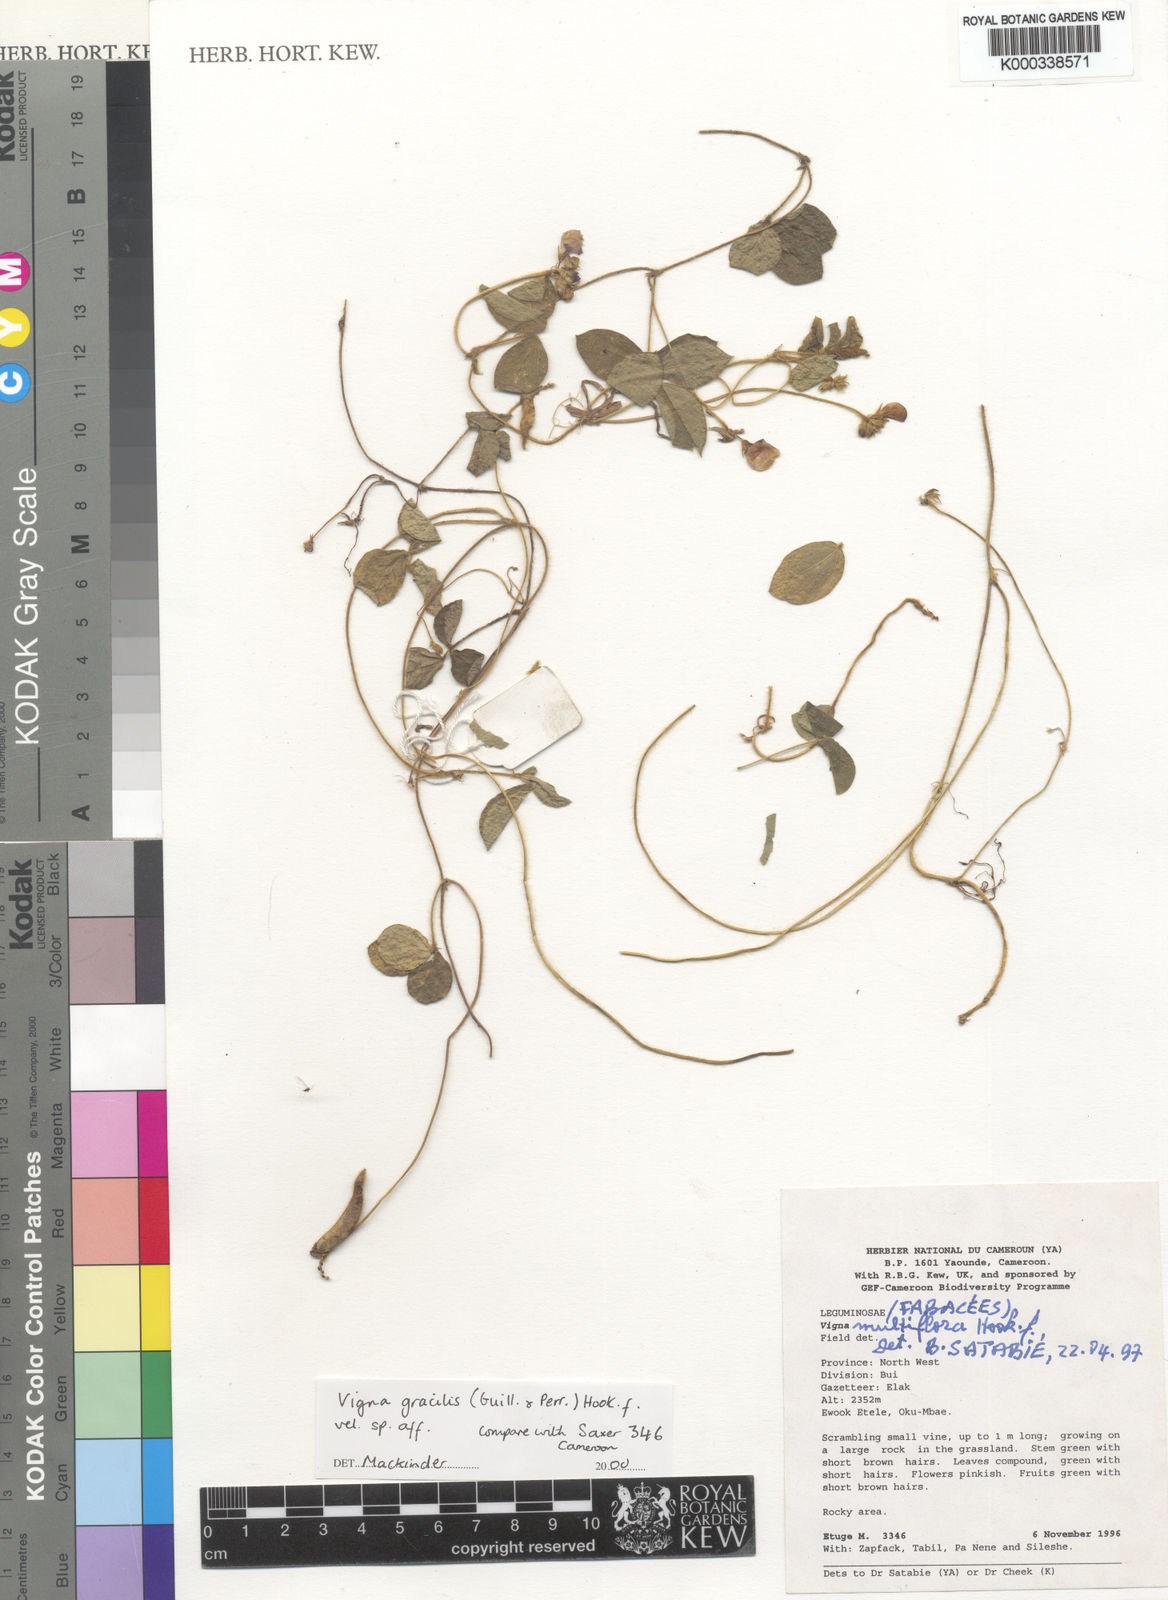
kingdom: Plantae
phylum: Tracheophyta
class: Magnoliopsida
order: Fabales
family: Fabaceae
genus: Vigna
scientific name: Vigna gracilis
